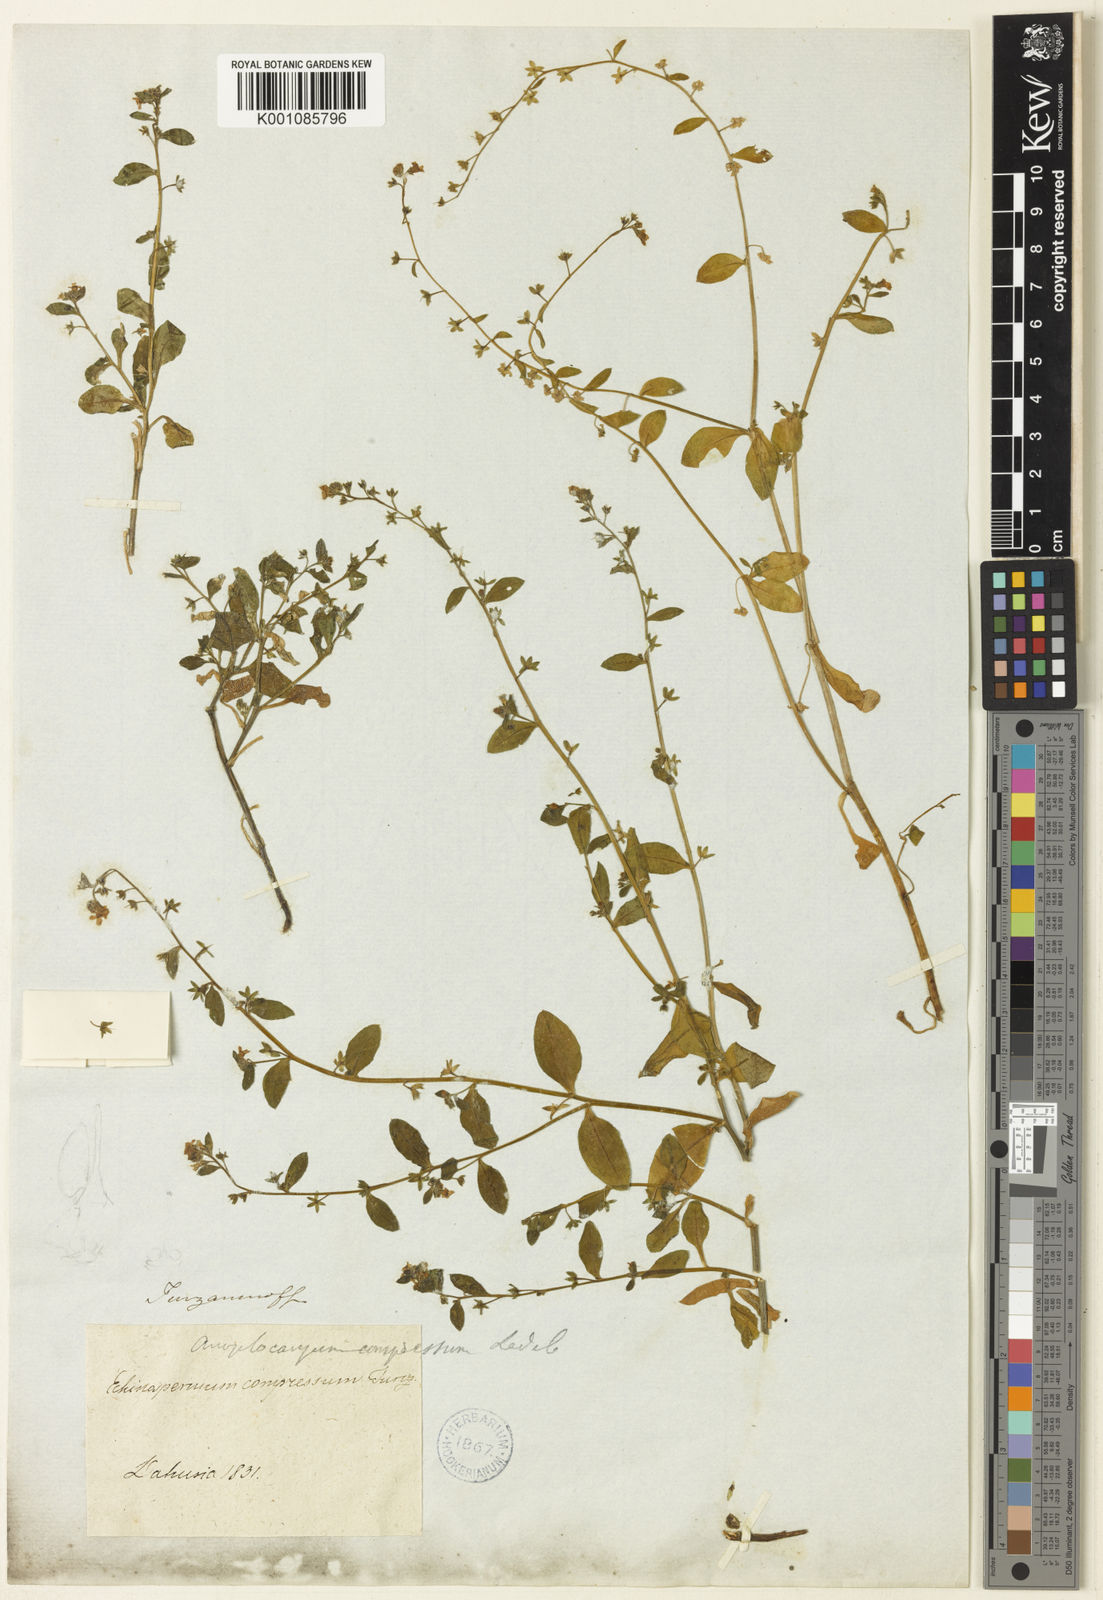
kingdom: Plantae
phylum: Tracheophyta
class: Magnoliopsida
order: Boraginales
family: Boraginaceae
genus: Anoplocaryum
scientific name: Anoplocaryum compressum
